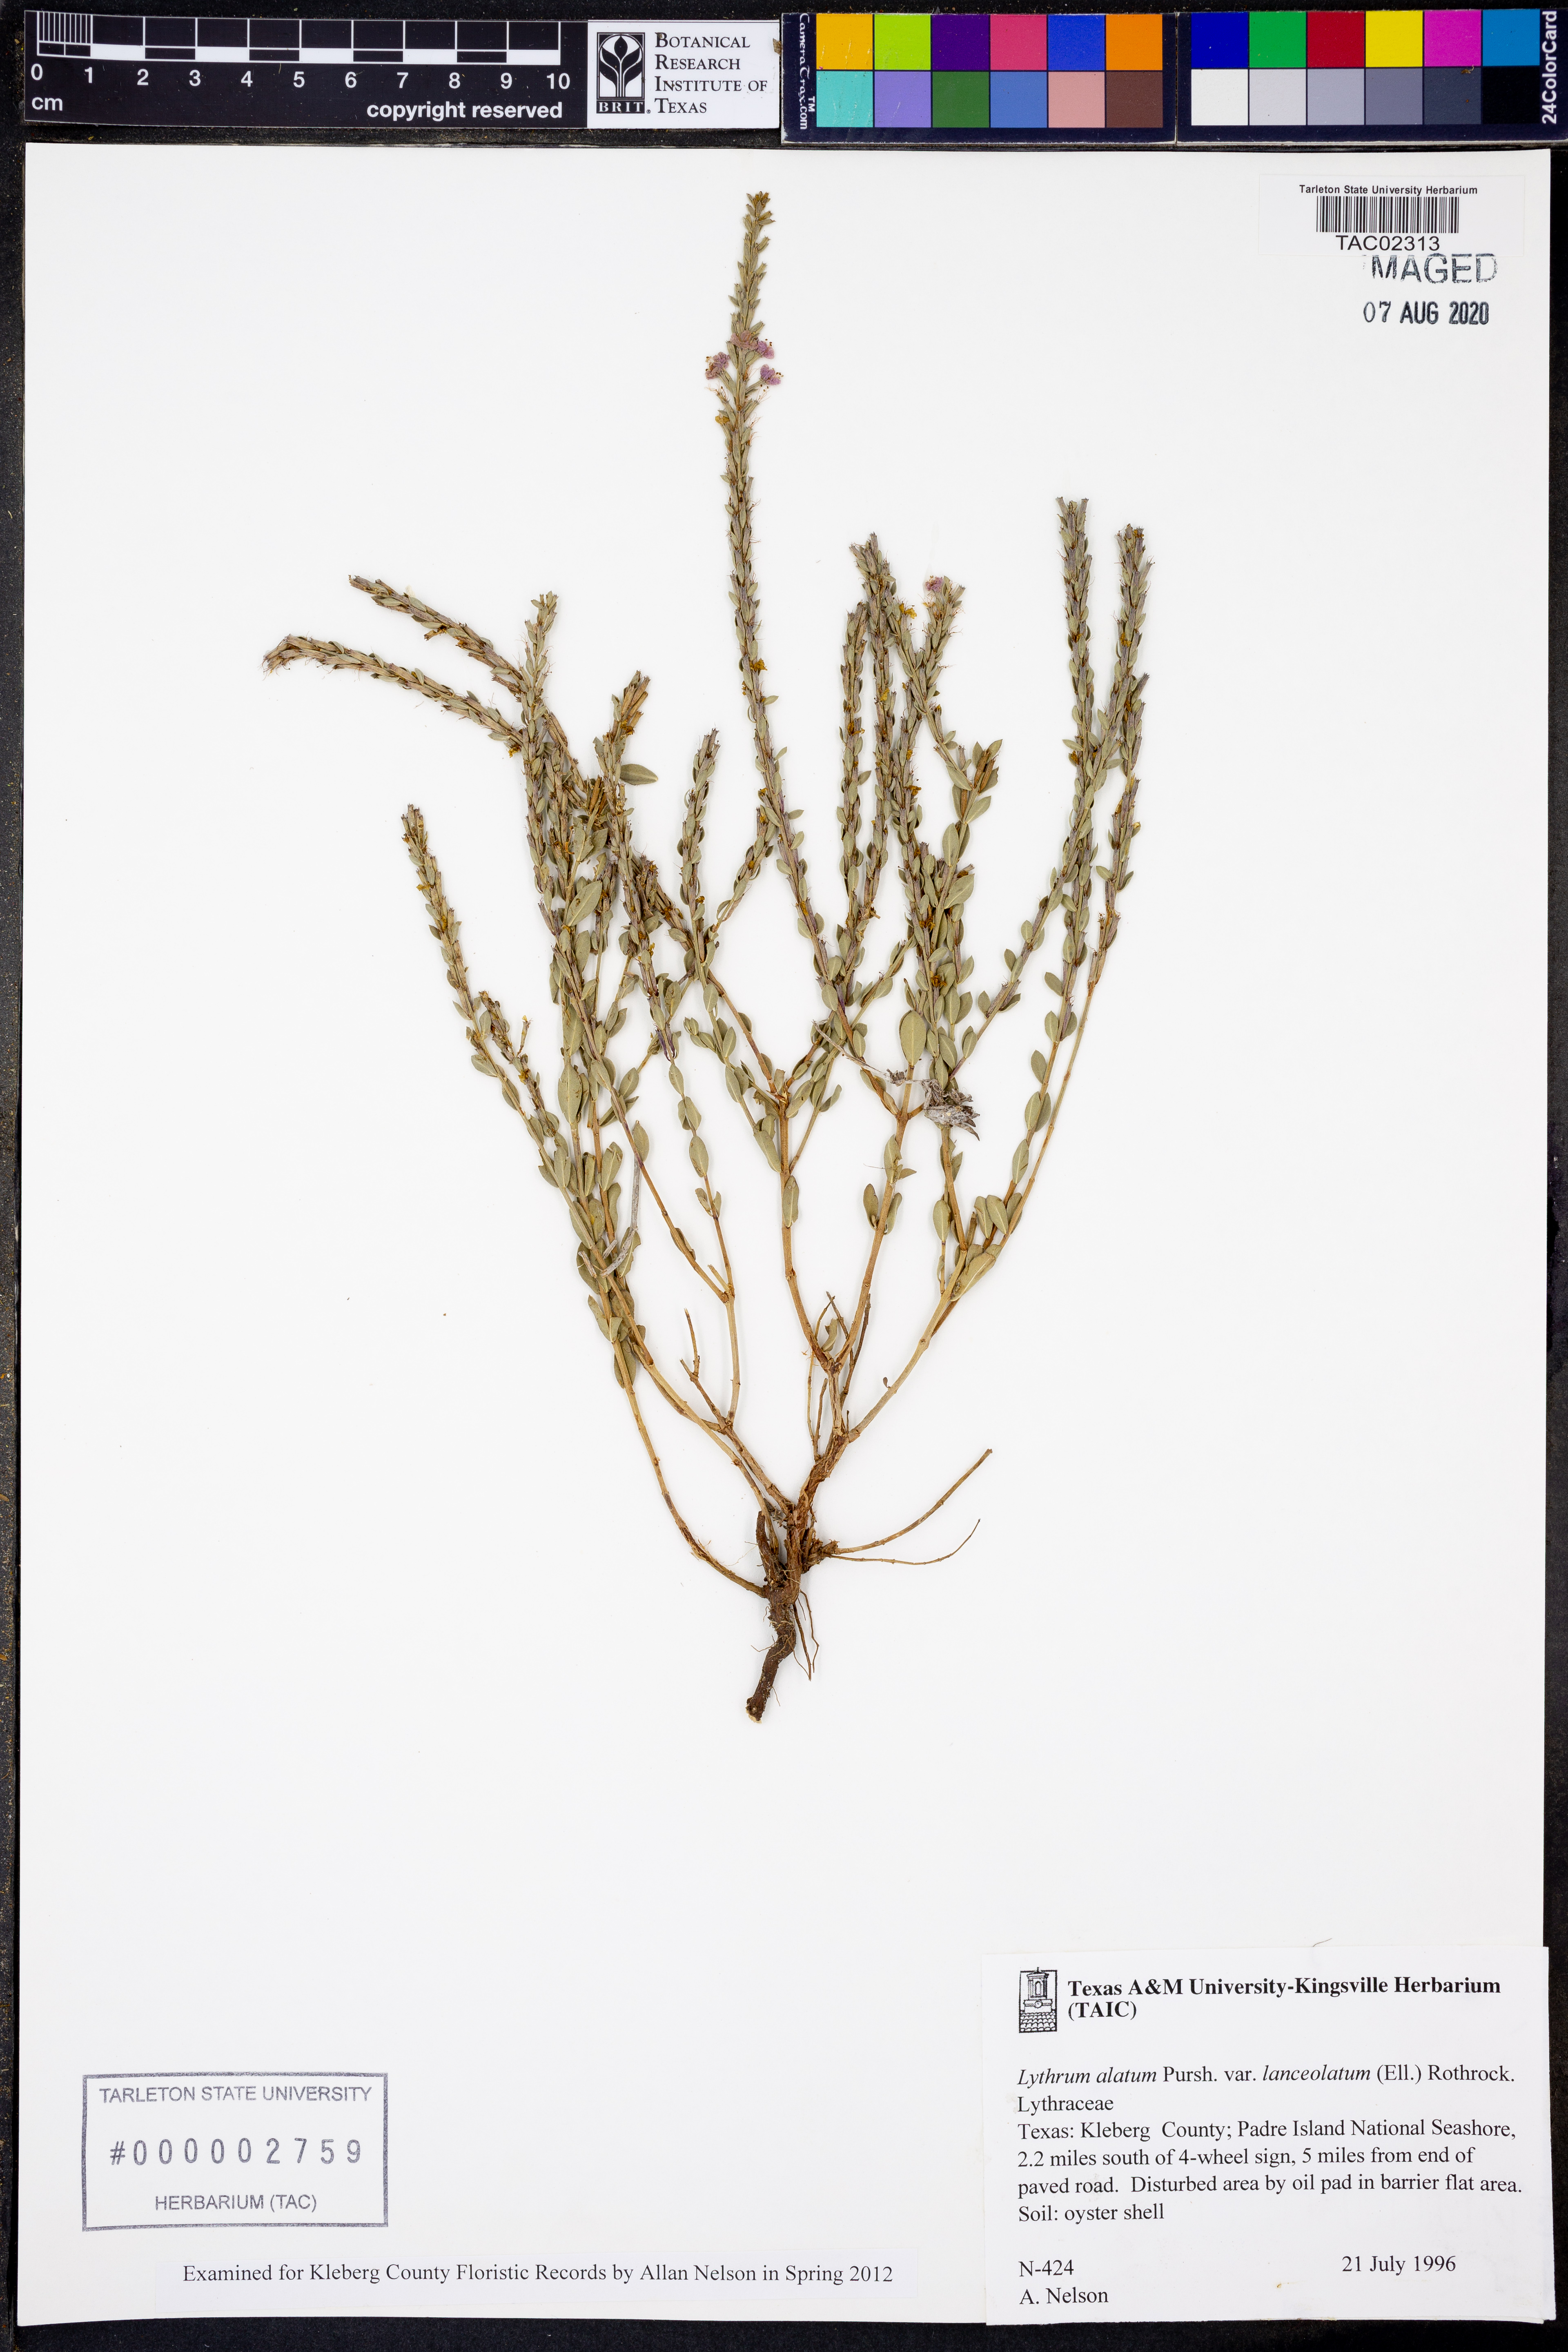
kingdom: Plantae
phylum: Tracheophyta
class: Magnoliopsida
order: Myrtales
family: Lythraceae
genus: Lythrum
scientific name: Lythrum alatum
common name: Winged loosestrife
